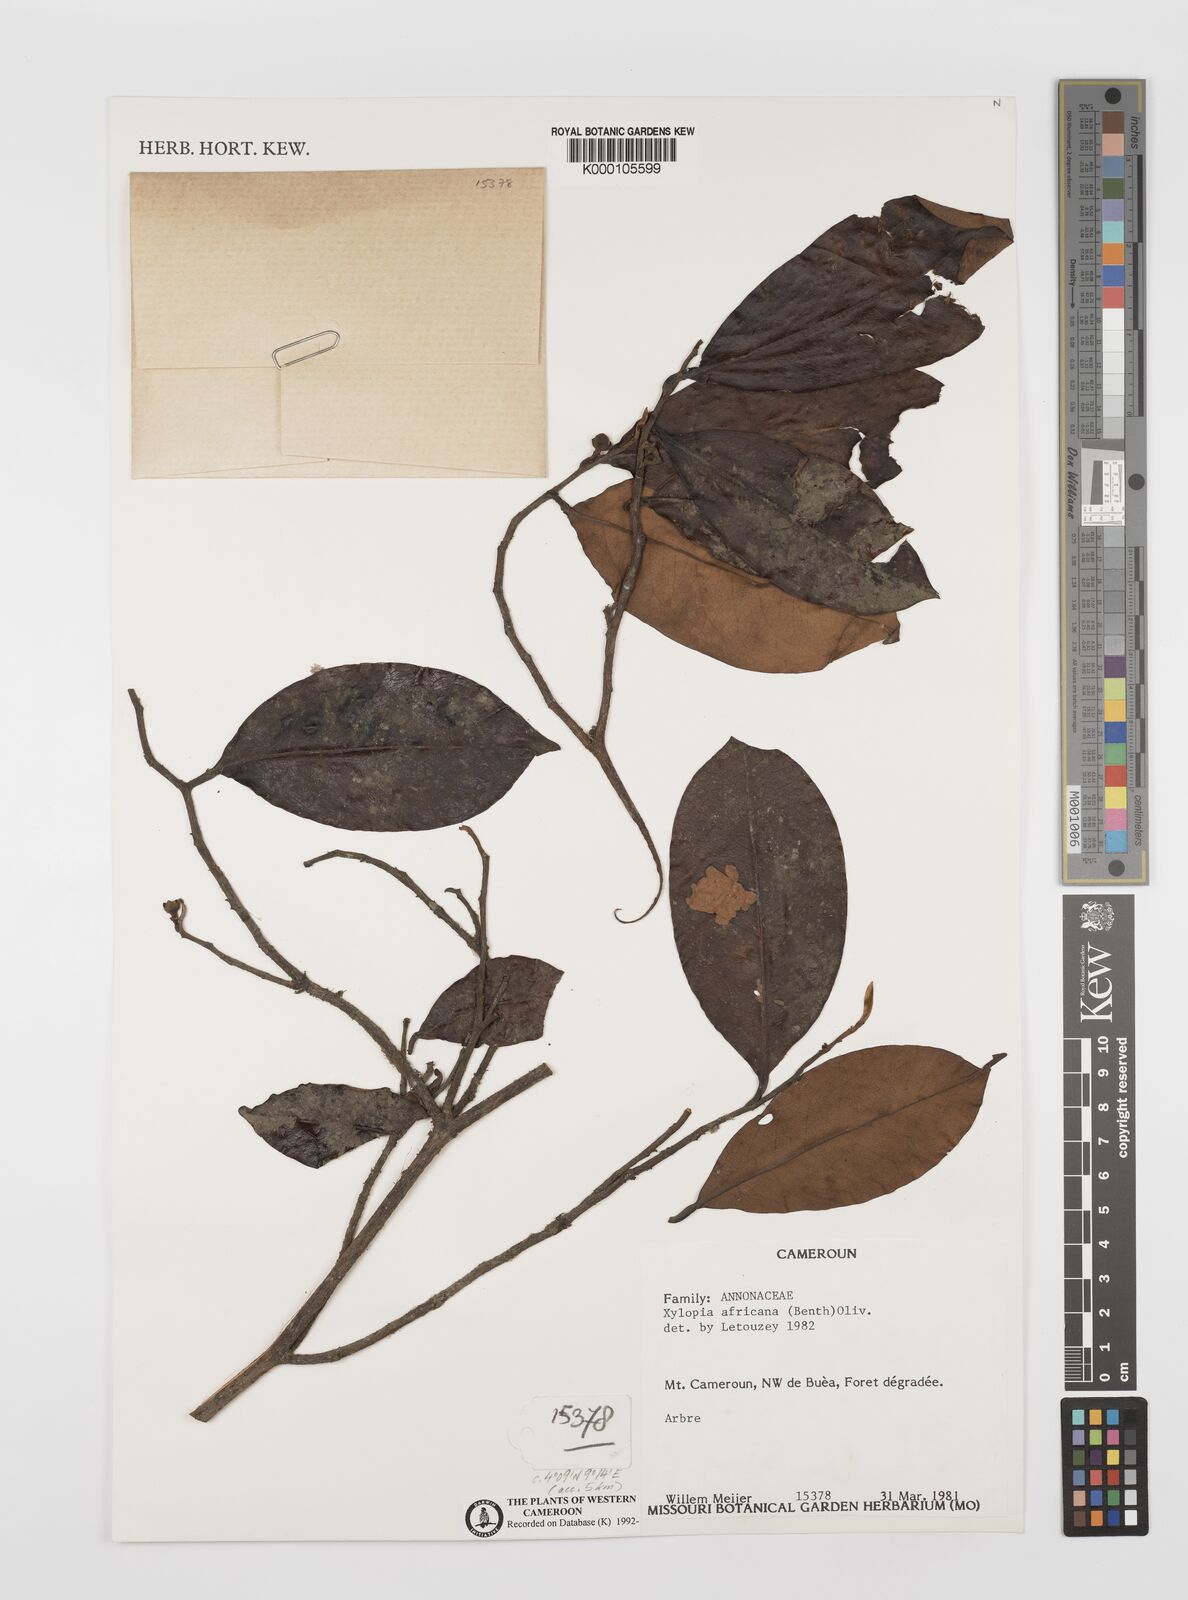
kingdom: Plantae
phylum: Tracheophyta
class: Magnoliopsida
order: Magnoliales
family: Annonaceae
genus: Xylopia
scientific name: Xylopia africana
